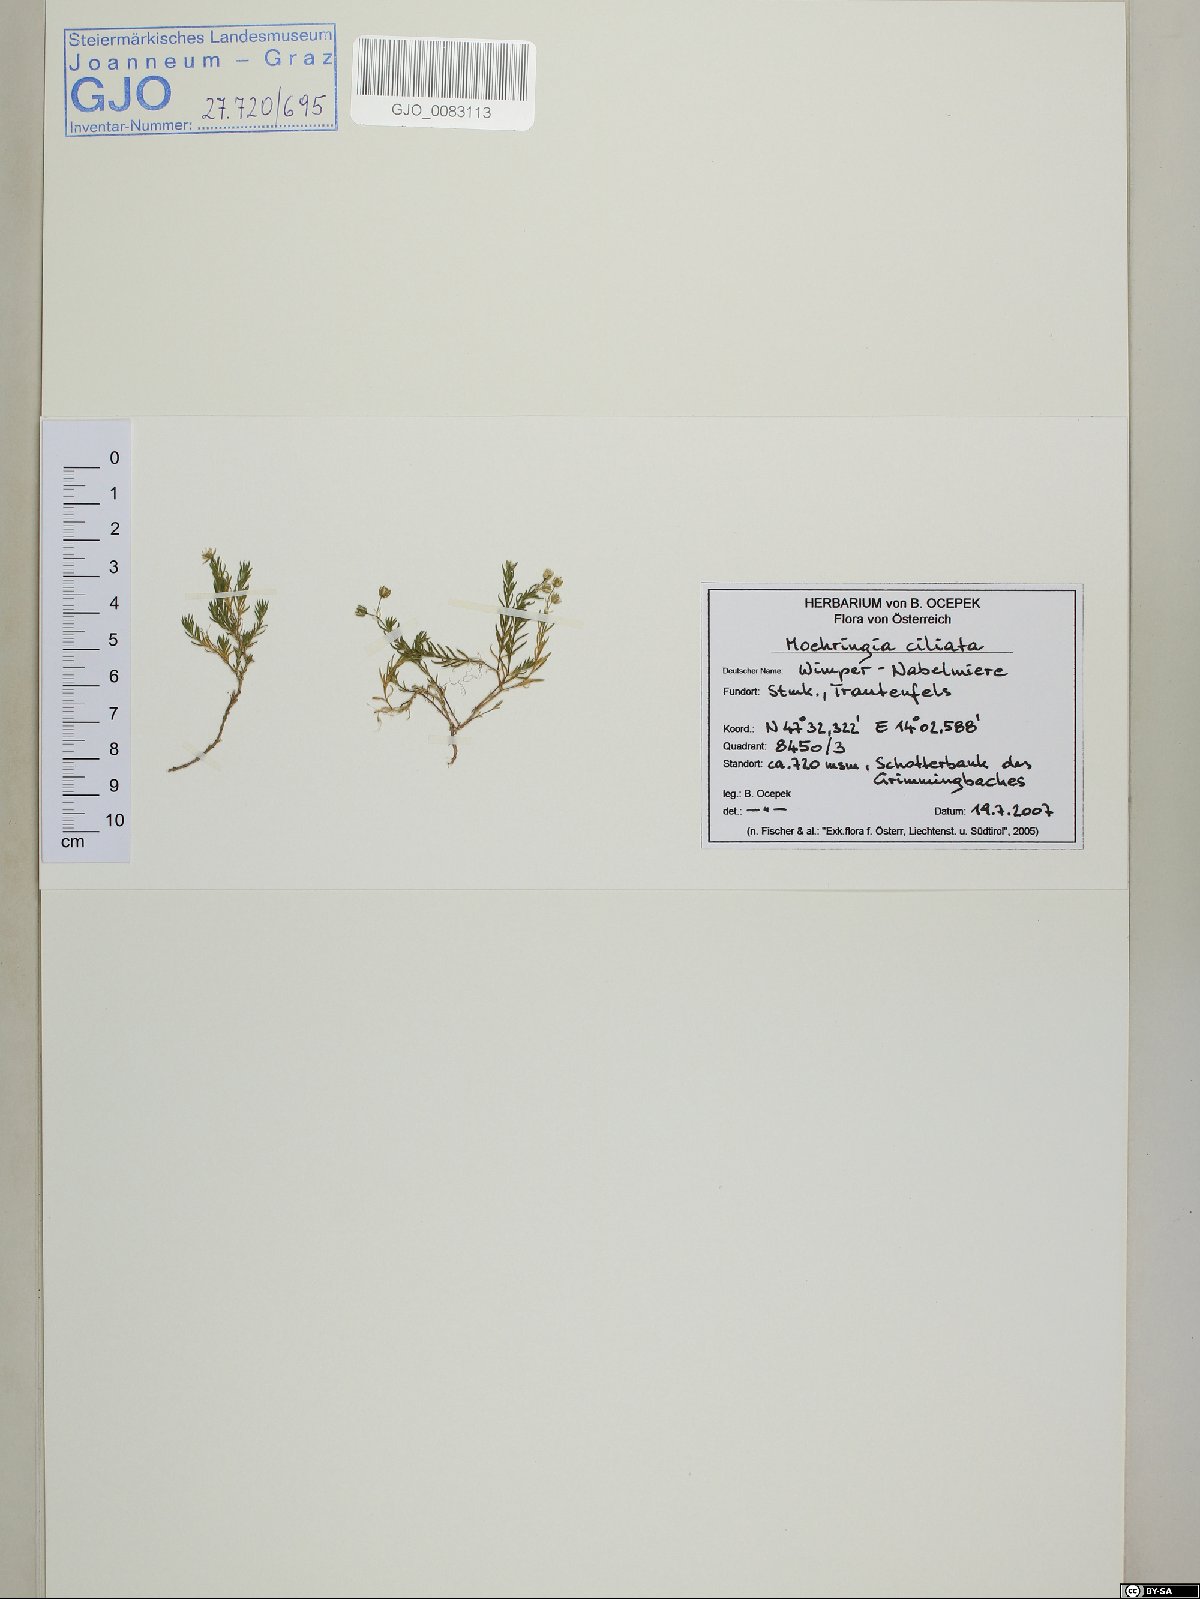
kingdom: Plantae
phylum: Tracheophyta
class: Magnoliopsida
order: Caryophyllales
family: Caryophyllaceae
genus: Moehringia
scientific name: Moehringia ciliata
